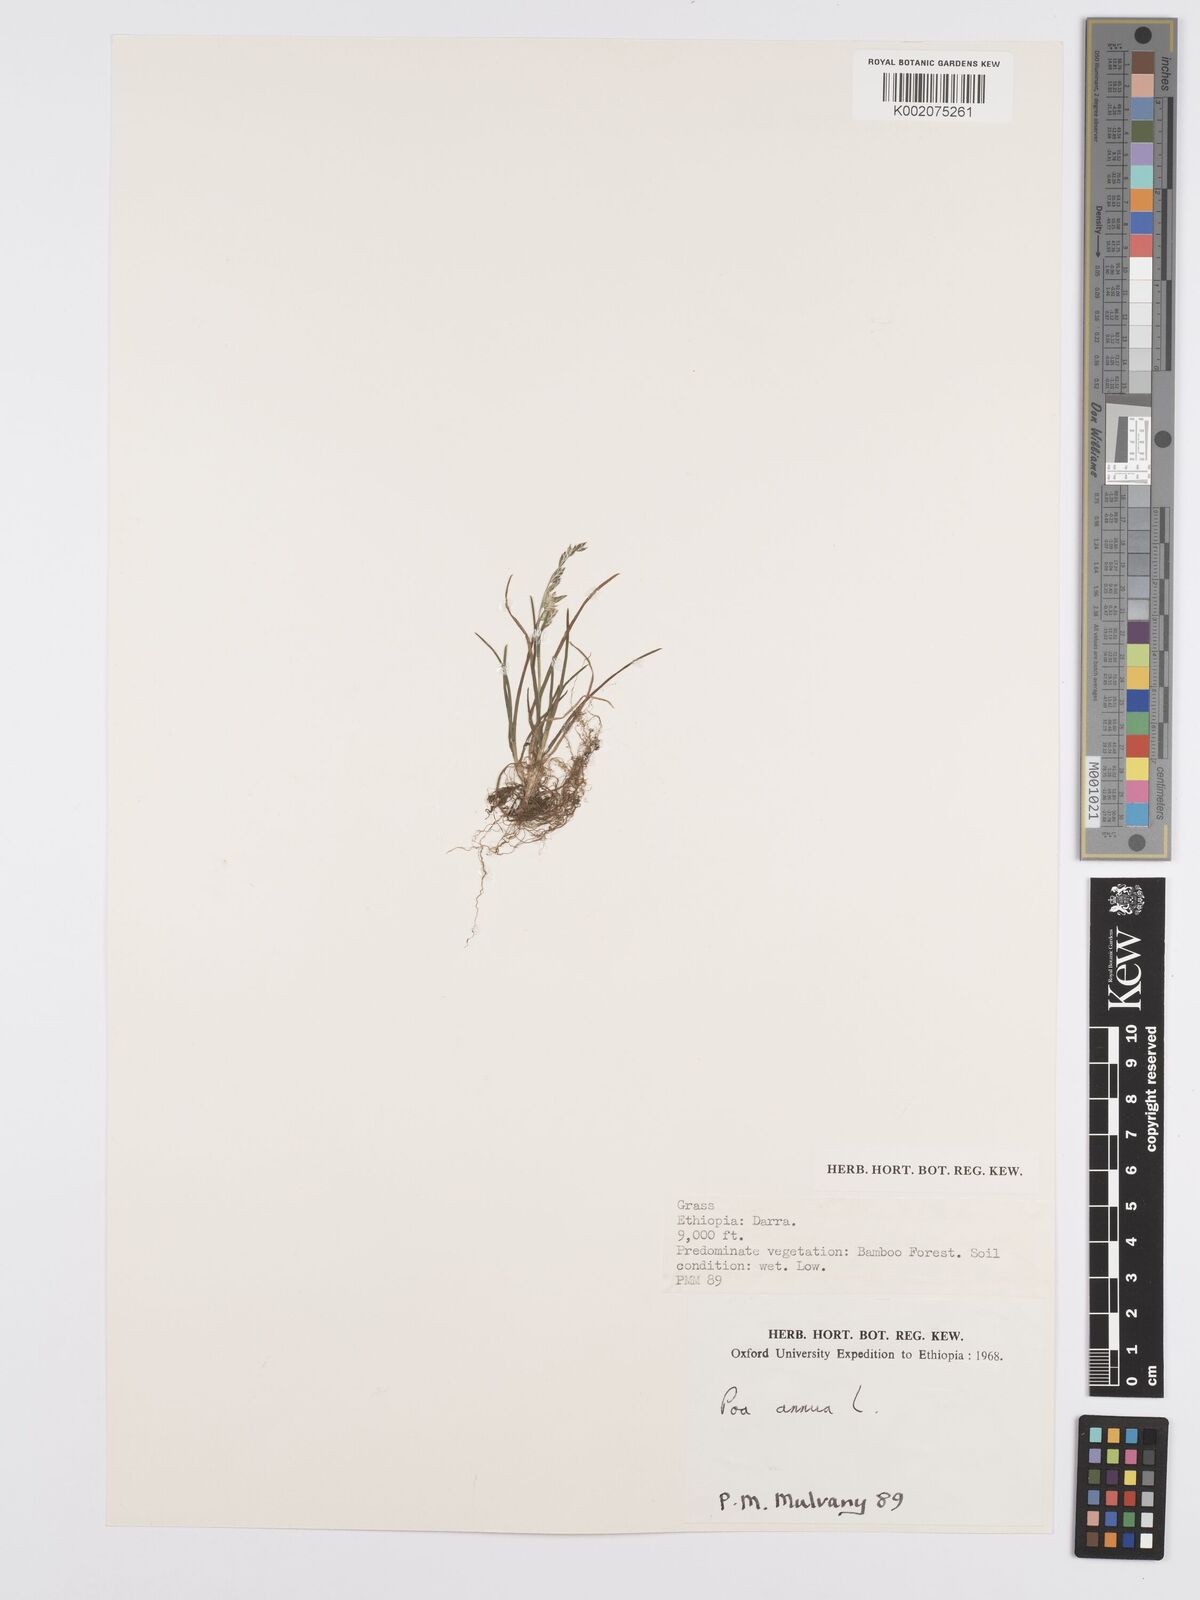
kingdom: Plantae
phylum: Tracheophyta
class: Liliopsida
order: Poales
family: Poaceae
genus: Poa
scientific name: Poa annua
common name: Annual bluegrass
